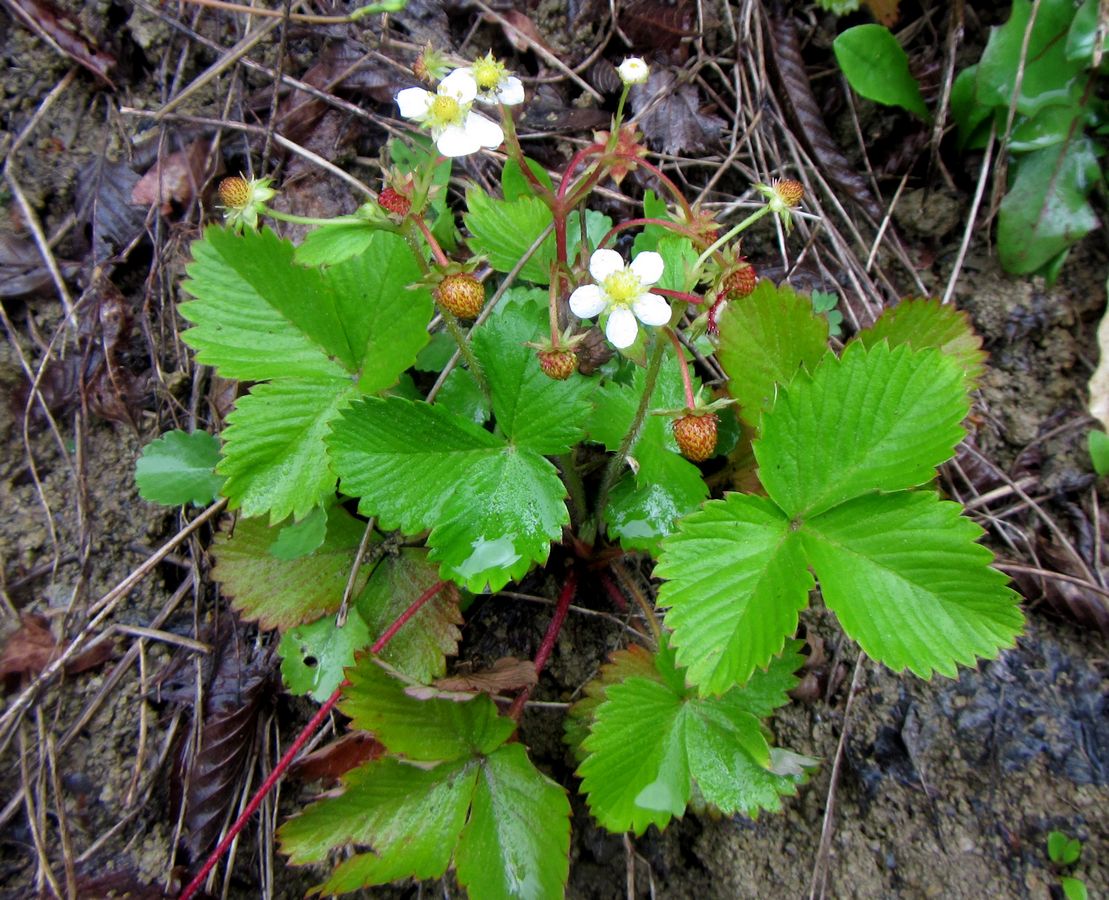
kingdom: Plantae
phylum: Tracheophyta
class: Magnoliopsida
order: Rosales
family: Rosaceae
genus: Fragaria
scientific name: Fragaria
